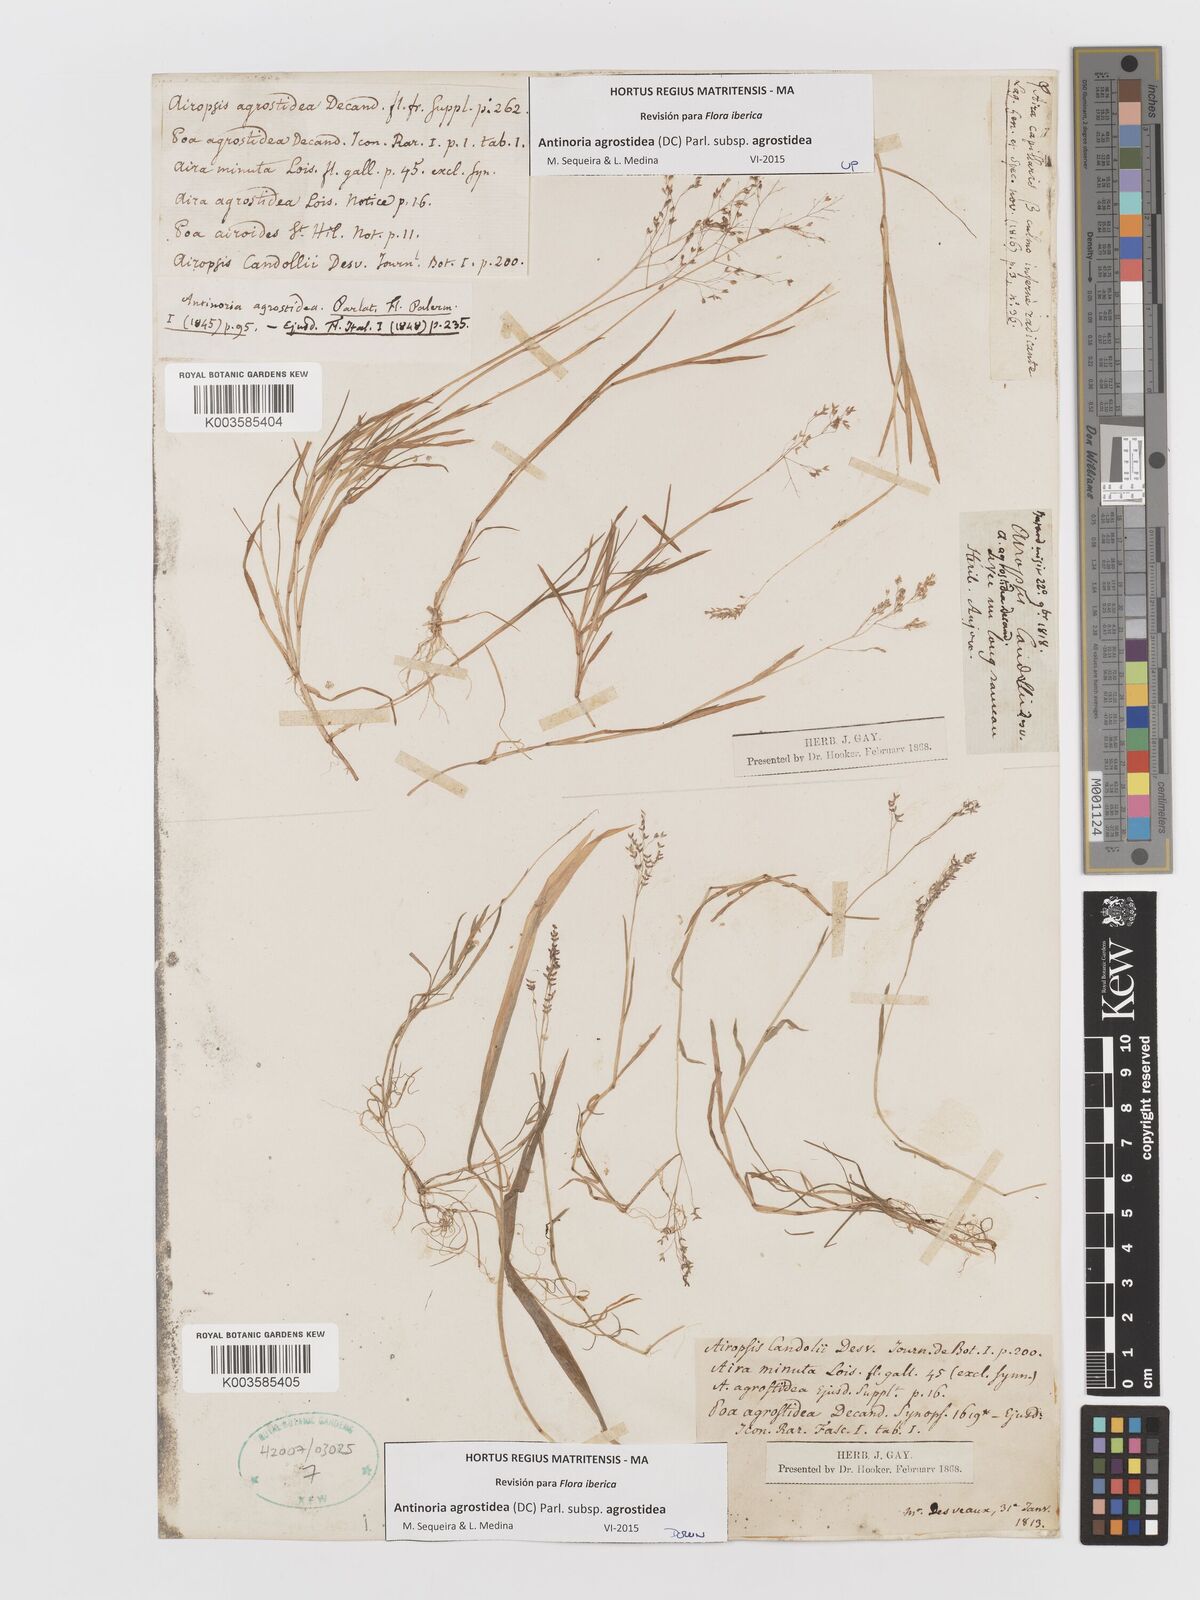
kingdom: Plantae
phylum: Tracheophyta
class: Liliopsida
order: Poales
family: Poaceae
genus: Antinoria
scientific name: Antinoria agrostidea
